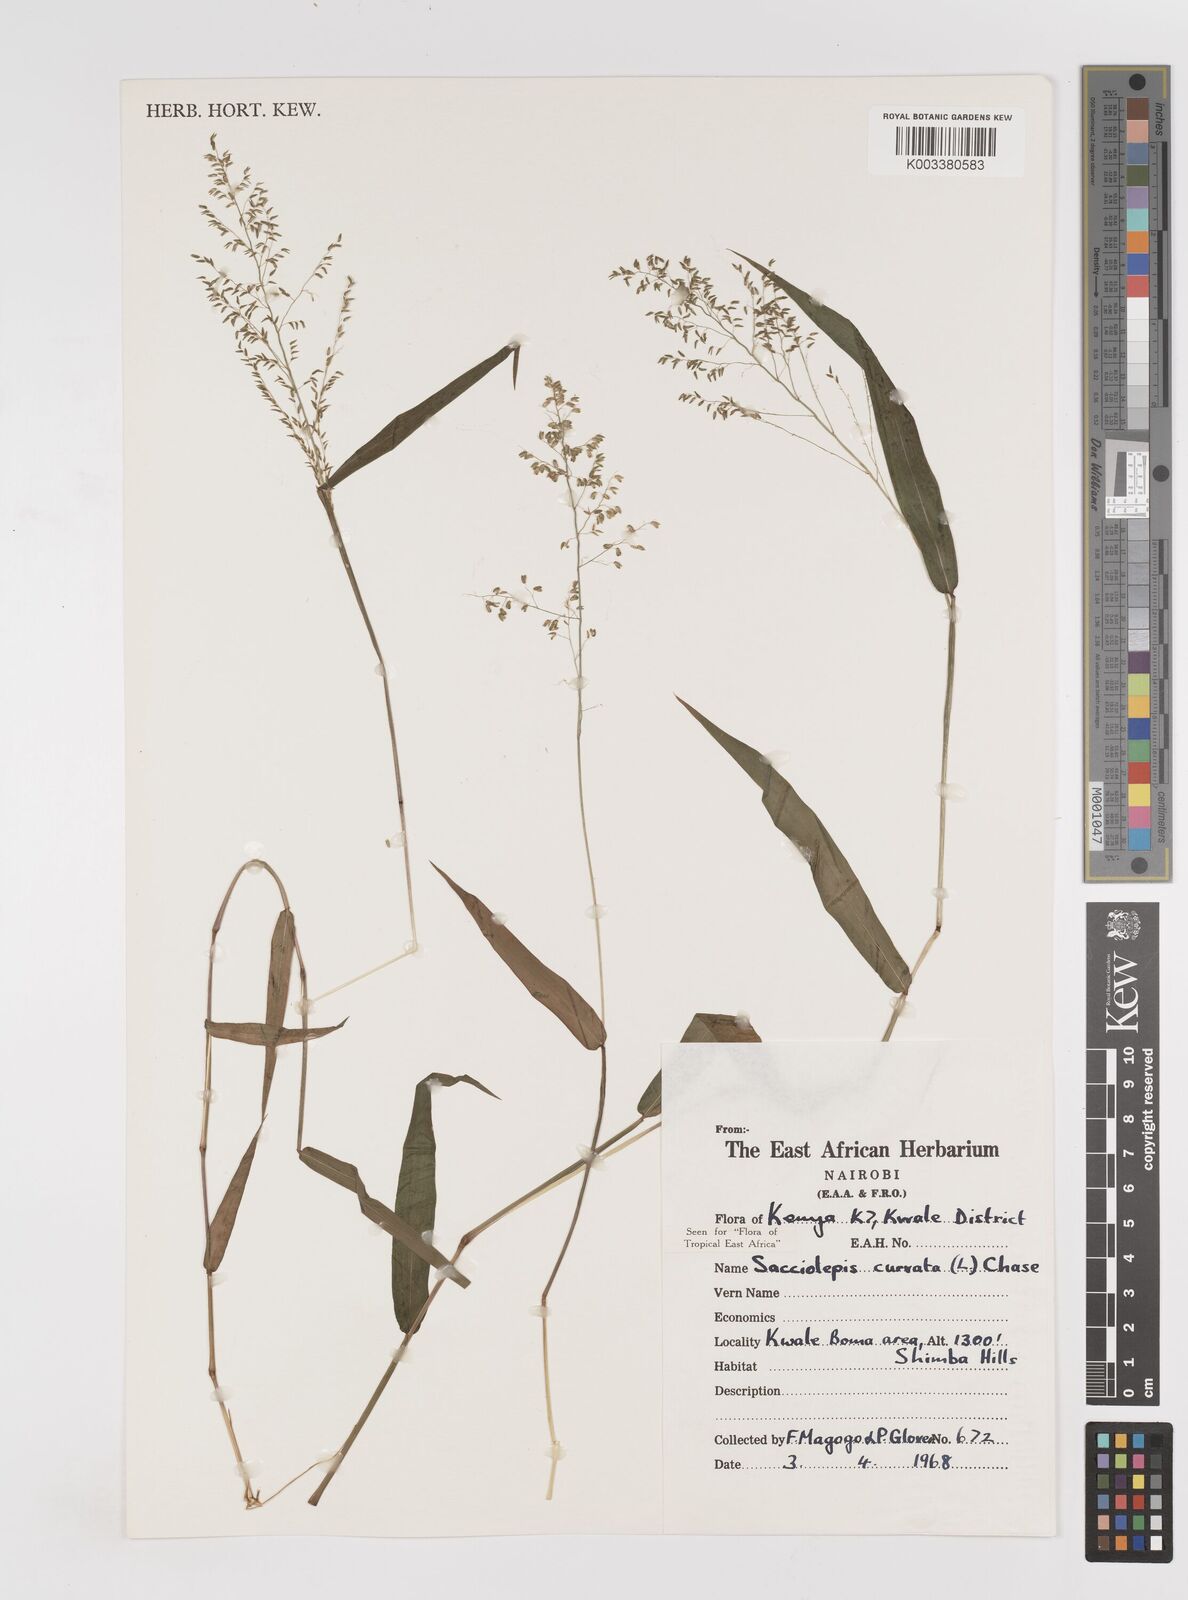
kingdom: Plantae
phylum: Tracheophyta
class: Liliopsida
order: Poales
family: Poaceae
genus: Sacciolepis
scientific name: Sacciolepis curvata
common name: Forest hood grass
